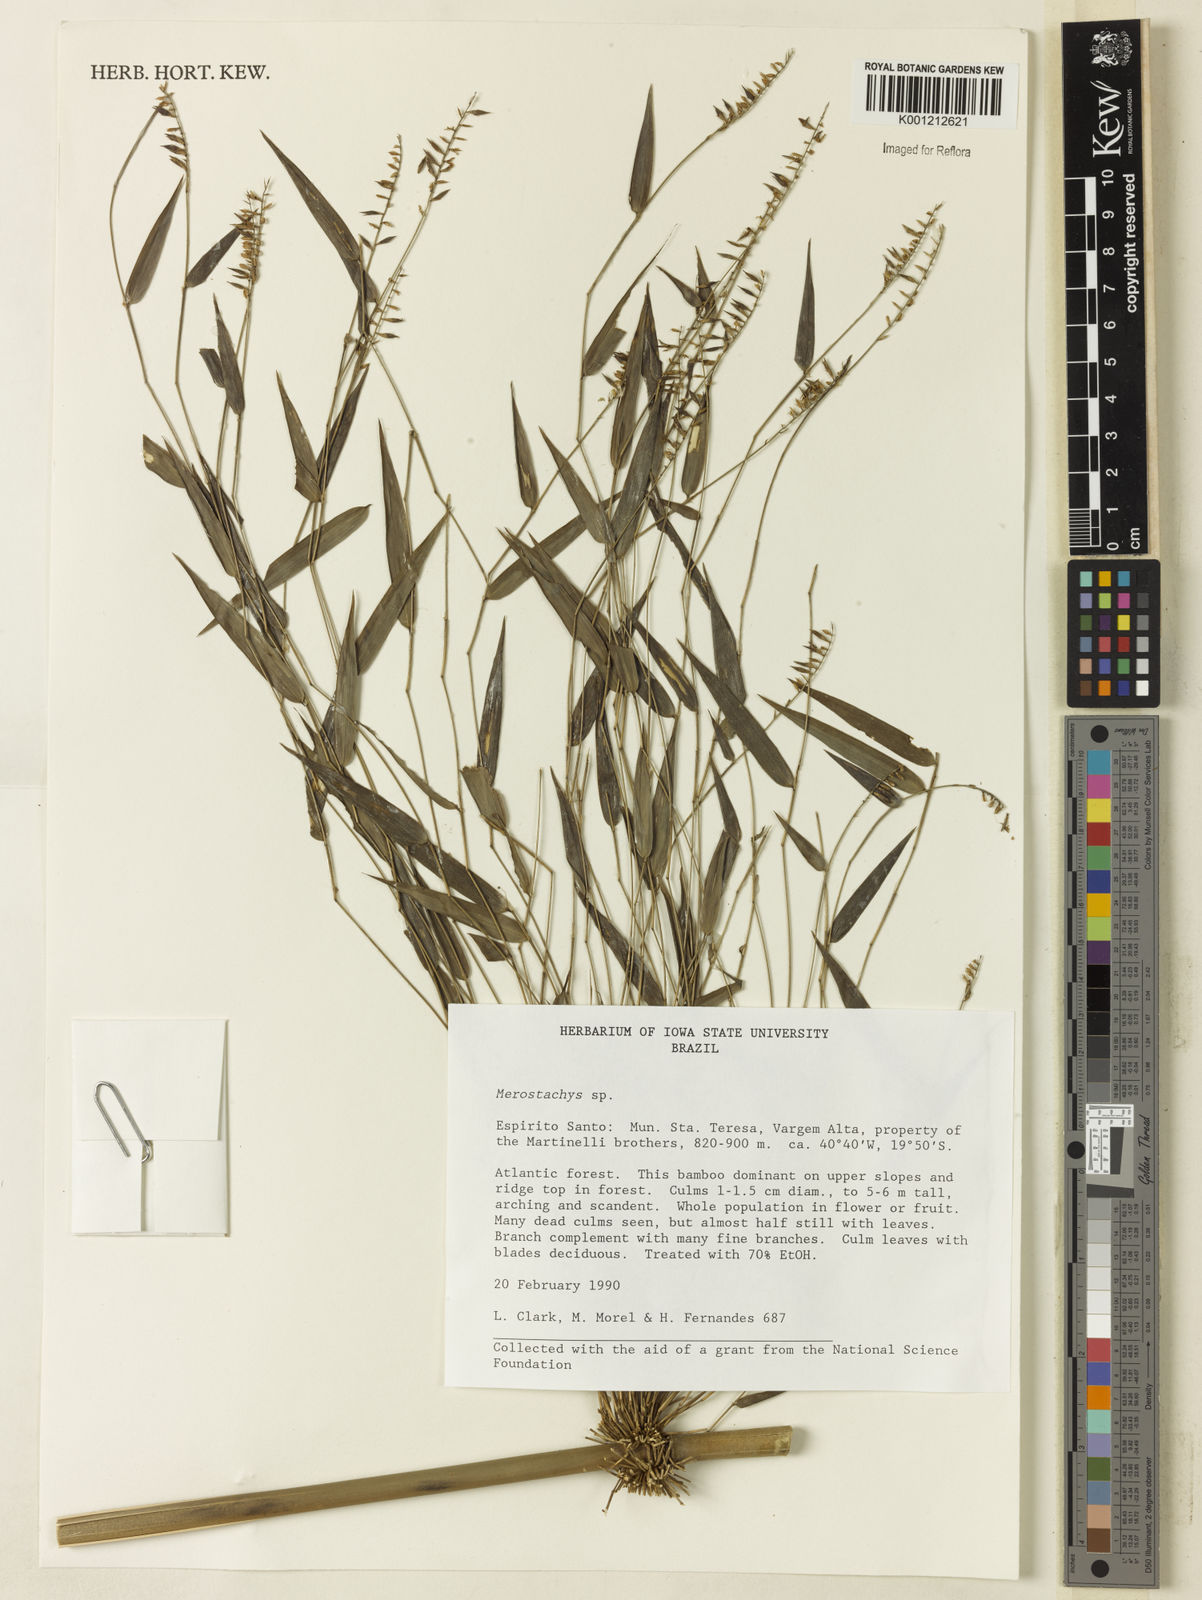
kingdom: Plantae
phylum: Tracheophyta
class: Liliopsida
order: Poales
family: Poaceae
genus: Merostachys
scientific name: Merostachys
